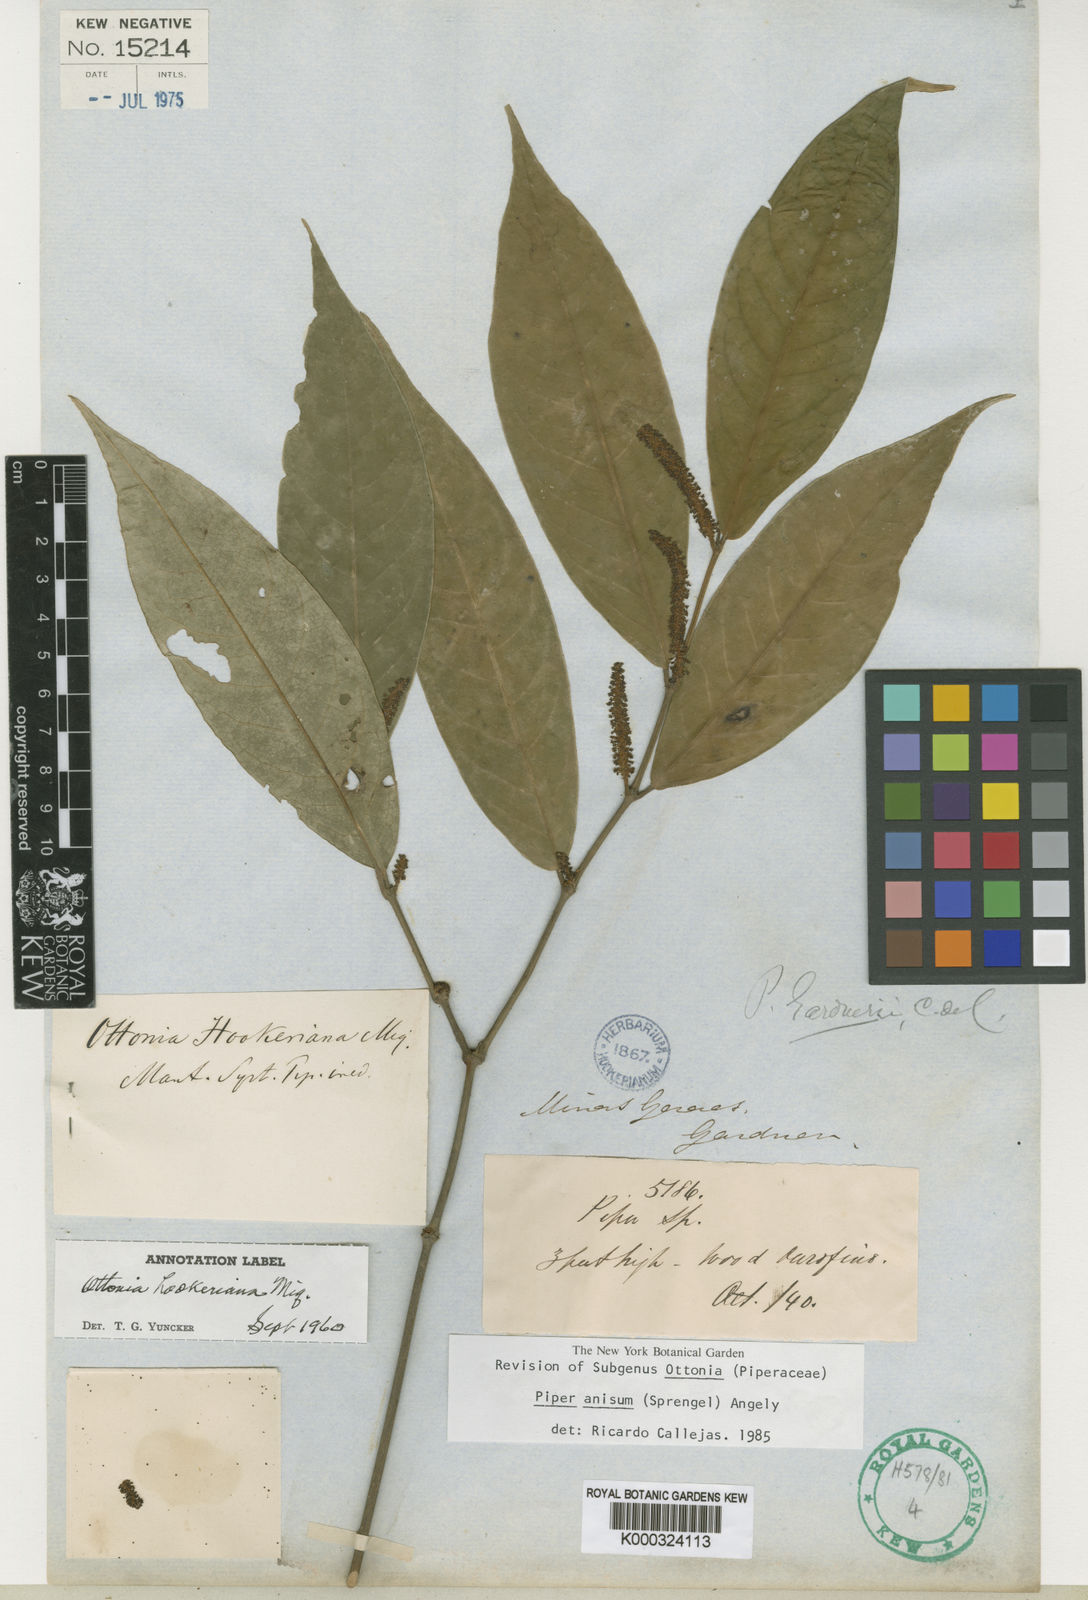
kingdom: Plantae
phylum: Tracheophyta
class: Magnoliopsida
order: Piperales
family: Piperaceae
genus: Piper
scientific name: Piper
